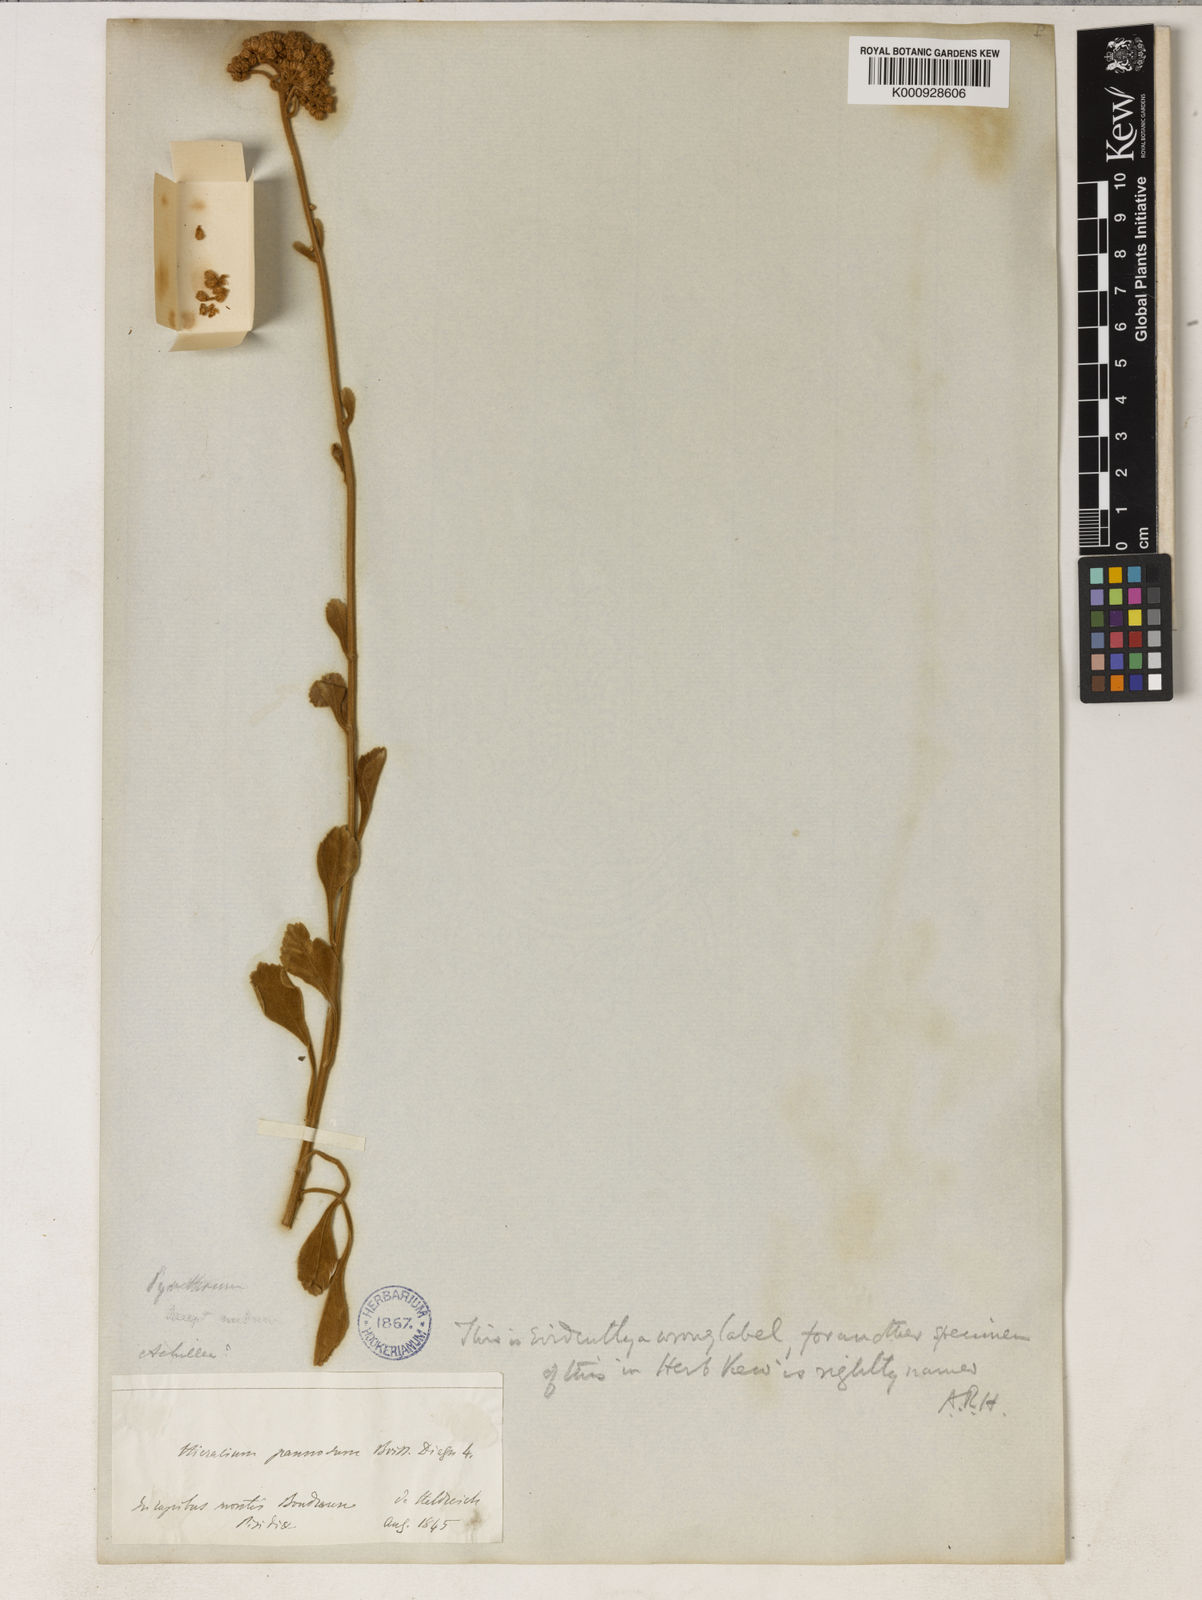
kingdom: Plantae
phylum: Tracheophyta
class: Magnoliopsida
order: Asterales
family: Asteraceae
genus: Tanacetum
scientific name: Tanacetum argenteum
